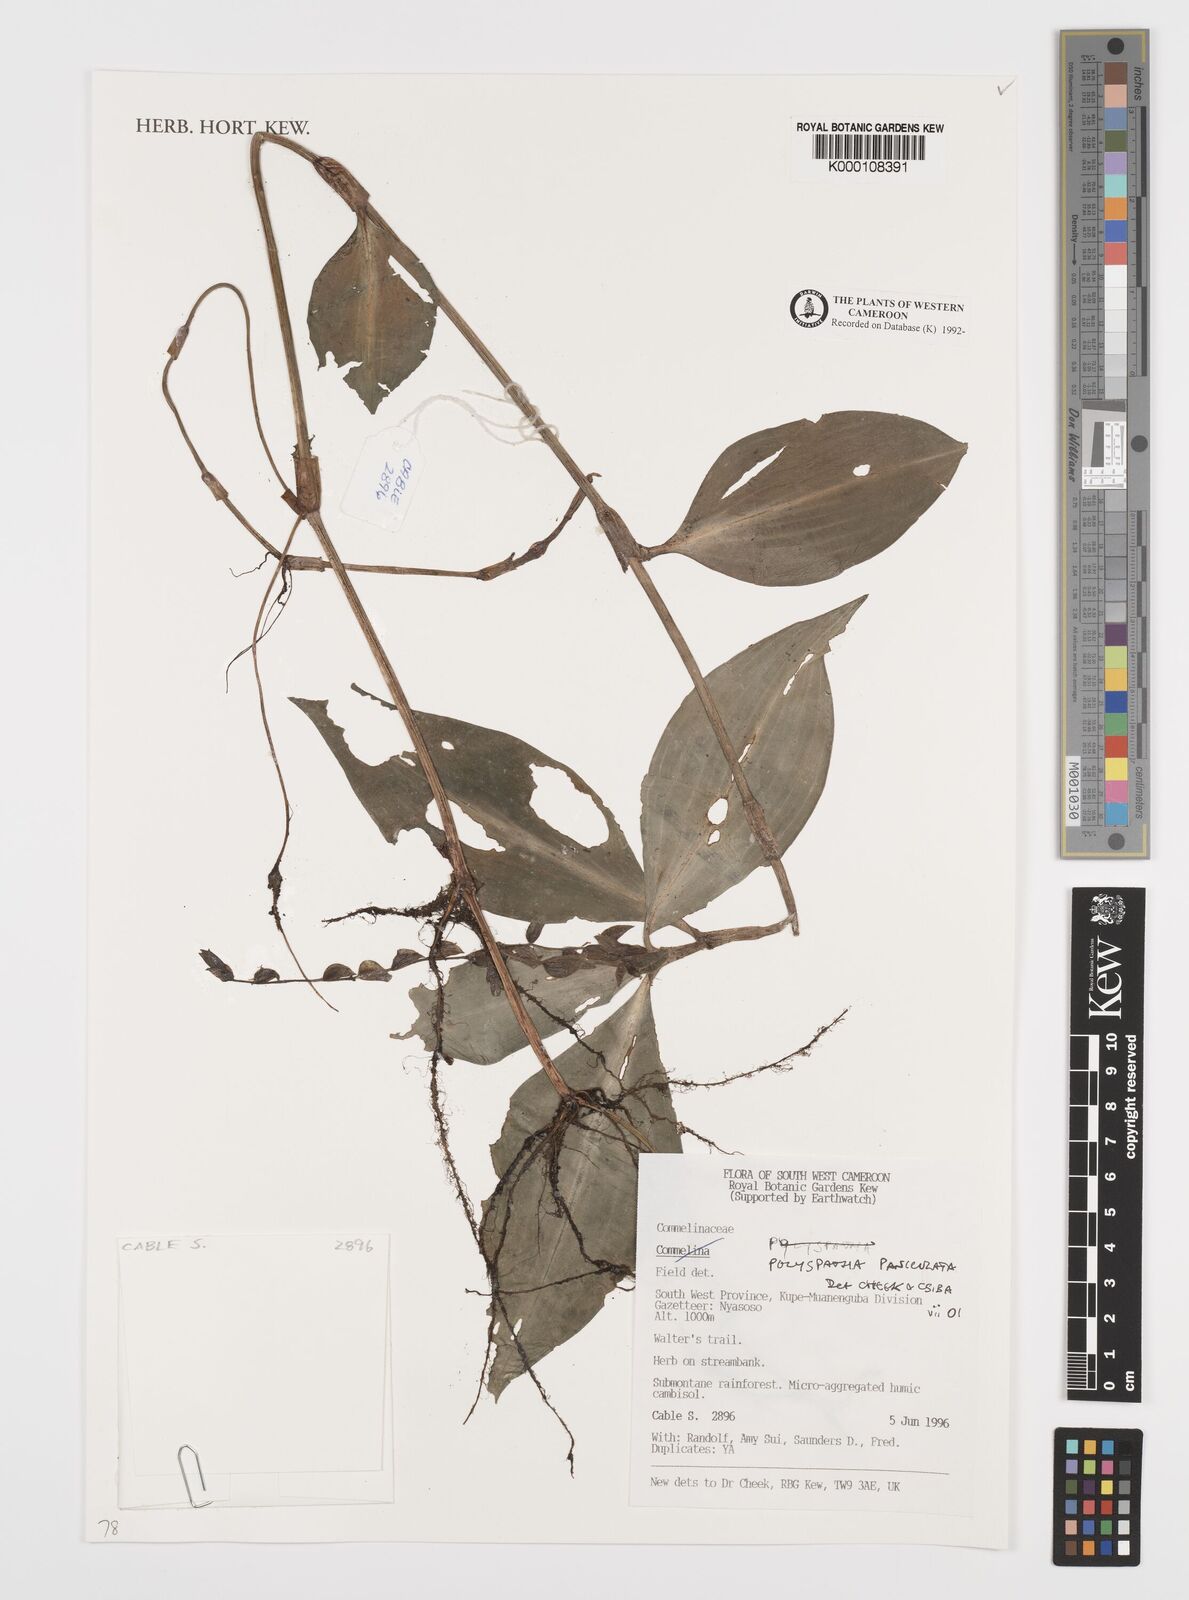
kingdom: Plantae
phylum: Tracheophyta
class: Liliopsida
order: Commelinales
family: Commelinaceae
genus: Polyspatha
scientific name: Polyspatha paniculata
